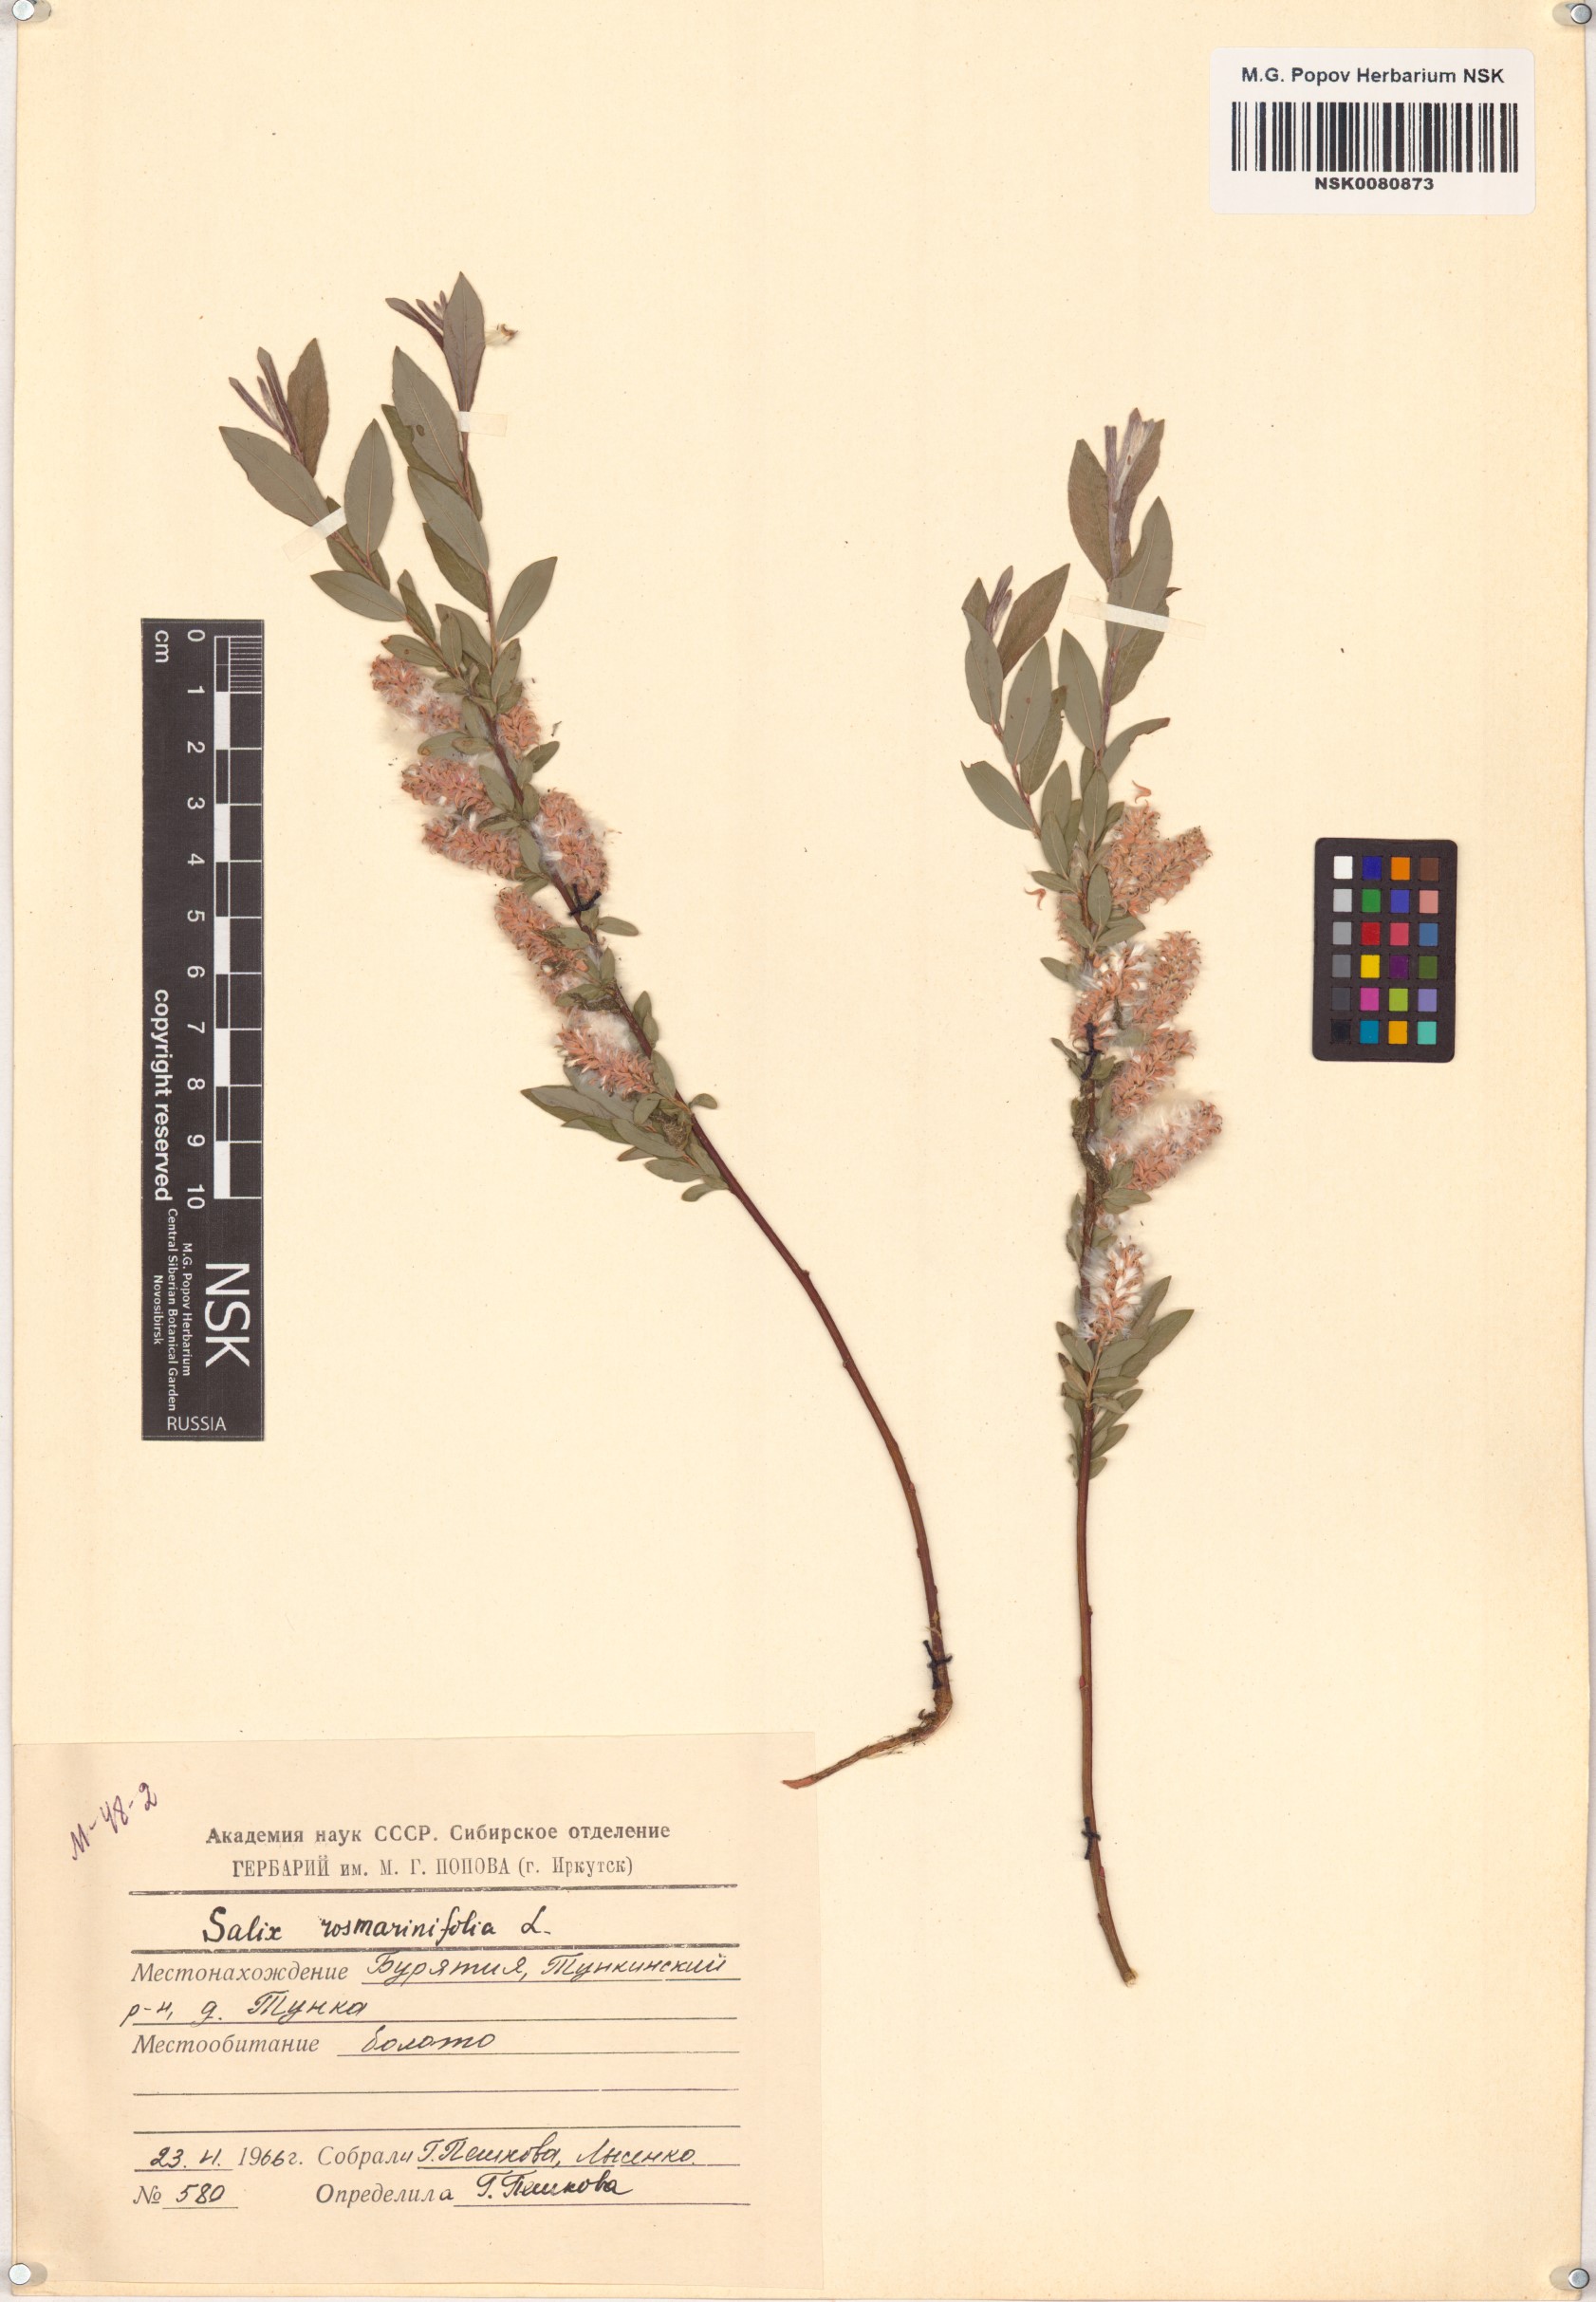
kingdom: Plantae
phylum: Tracheophyta
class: Magnoliopsida
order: Malpighiales
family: Salicaceae
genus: Salix
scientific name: Salix rosmarinifolia
